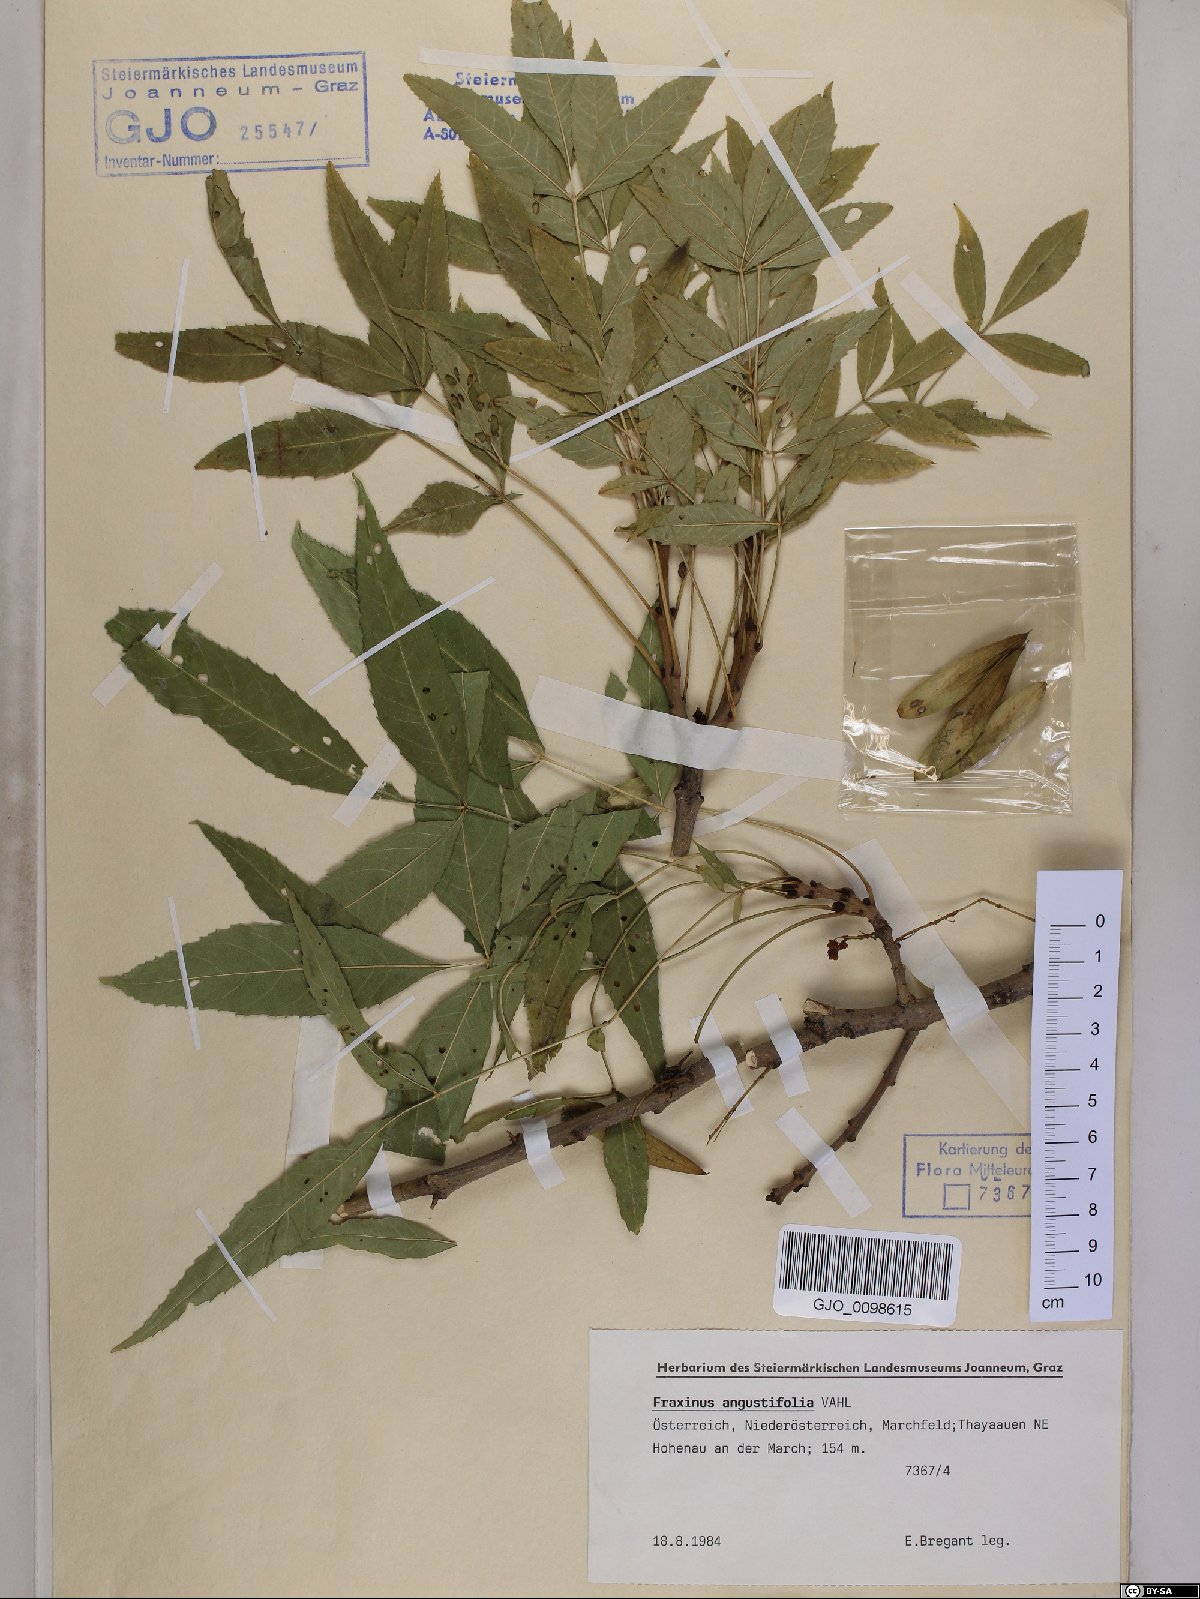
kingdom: Plantae
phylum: Tracheophyta
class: Magnoliopsida
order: Lamiales
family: Oleaceae
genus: Fraxinus
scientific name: Fraxinus angustifolia
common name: Narrow-leafed ash
